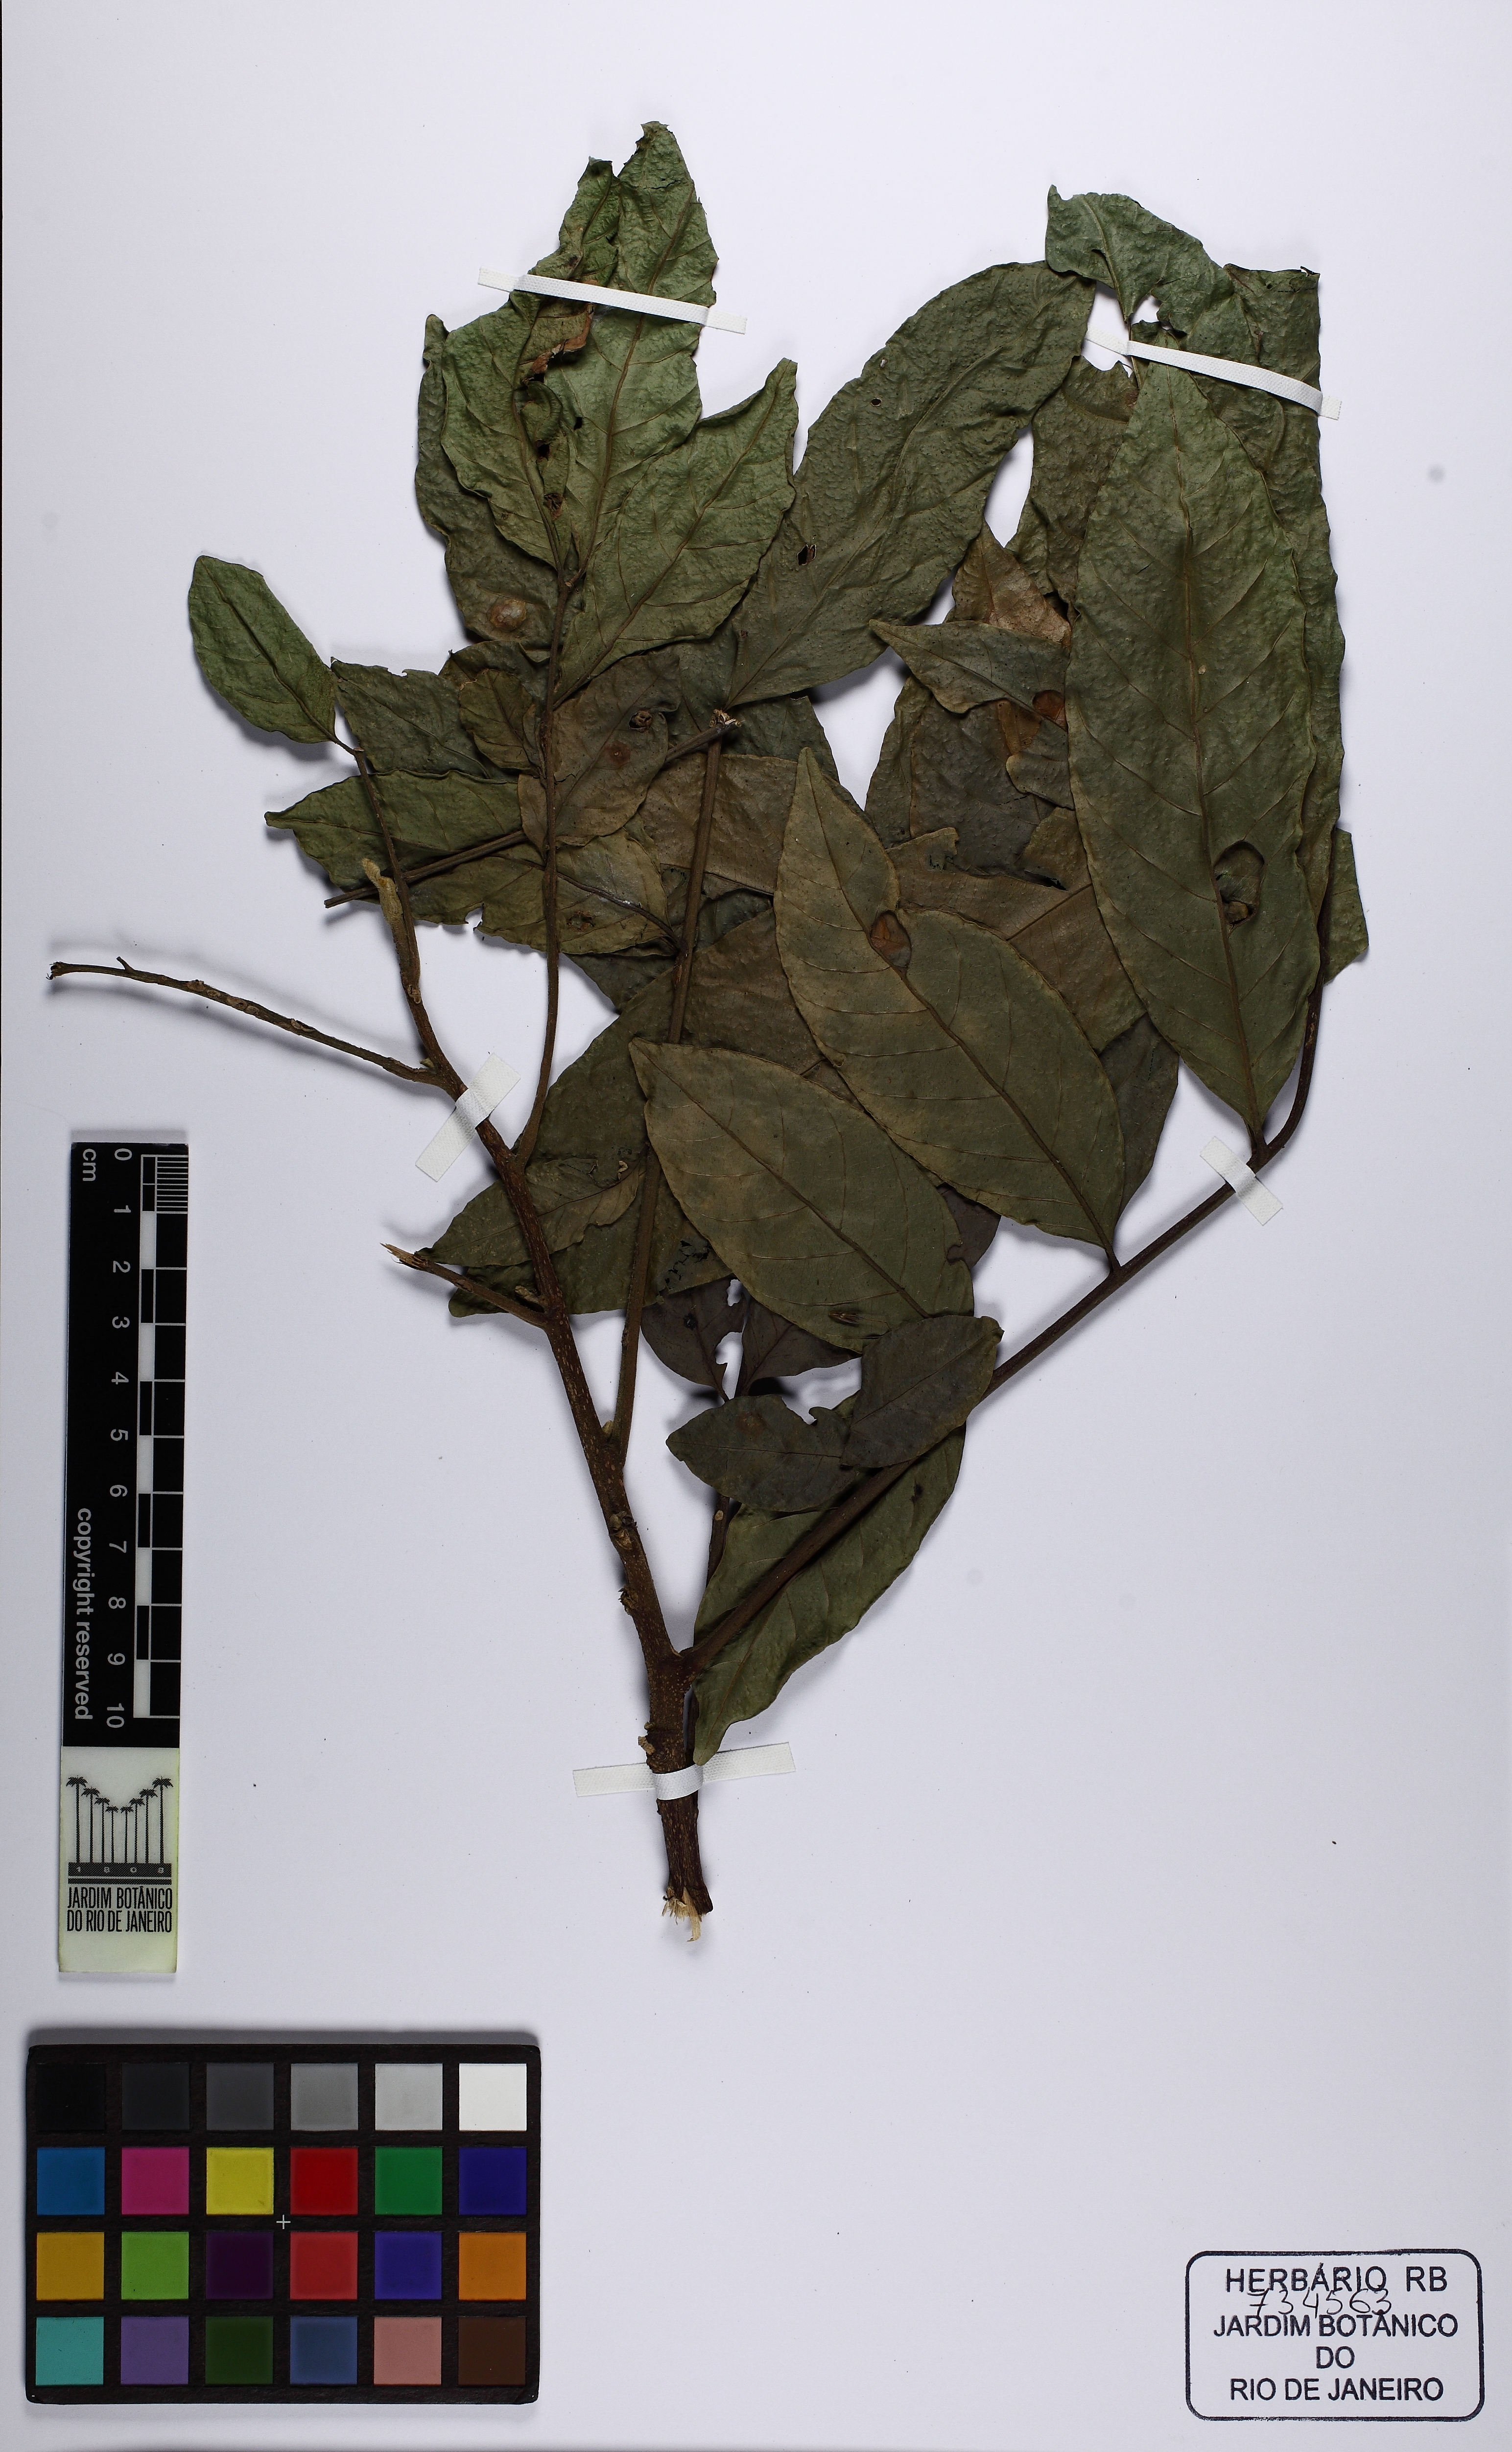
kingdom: Plantae
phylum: Tracheophyta
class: Magnoliopsida
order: Sapindales
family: Meliaceae
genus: Guarea
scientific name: Guarea guidonia
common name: American muskwood
